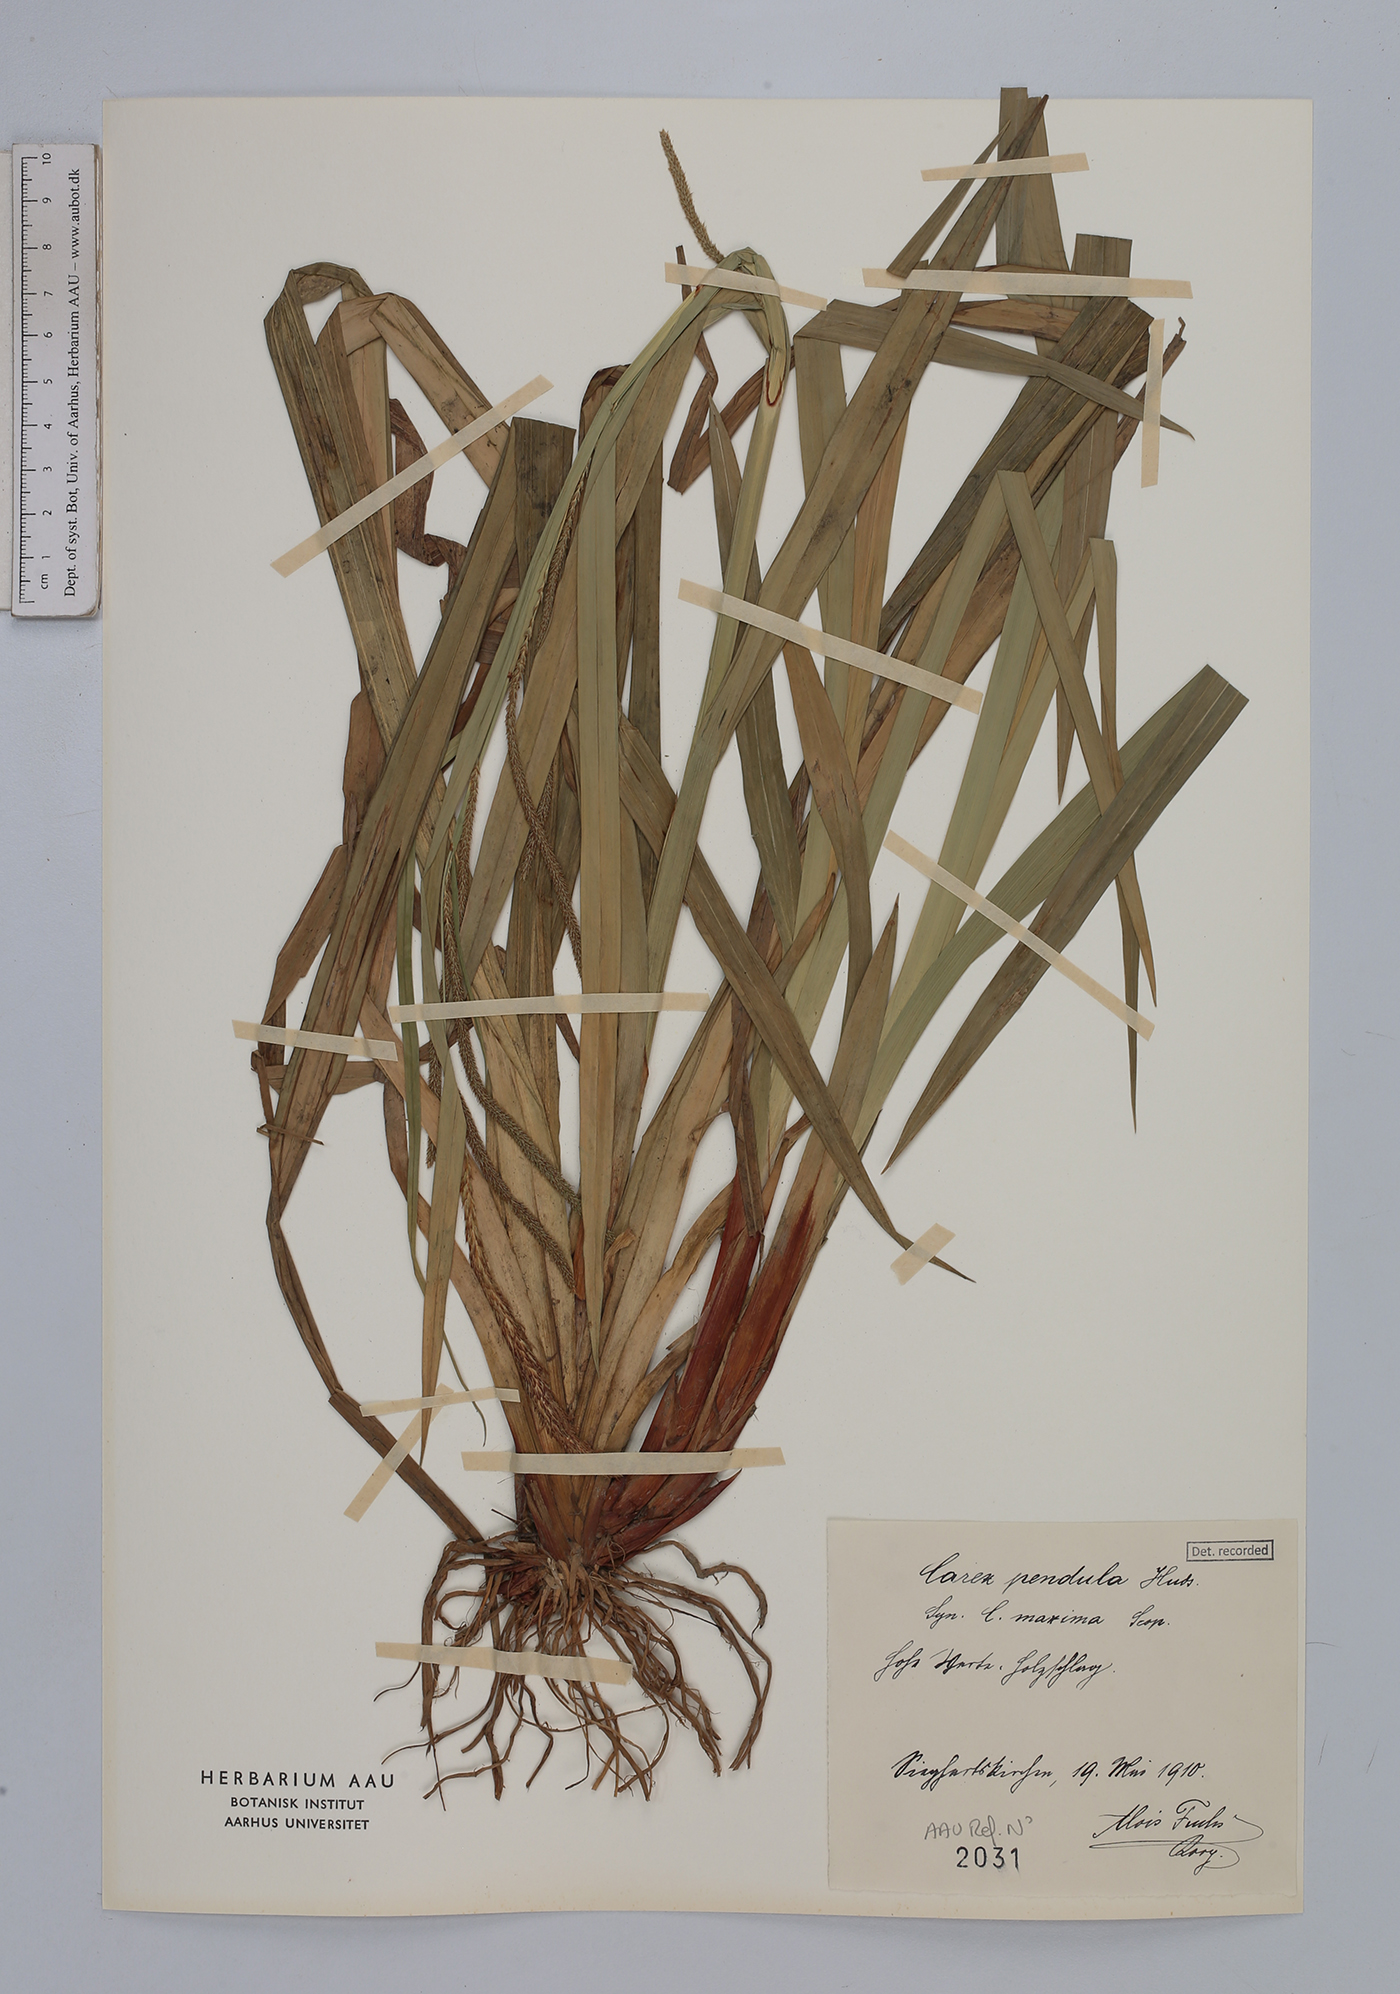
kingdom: Plantae
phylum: Tracheophyta
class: Liliopsida
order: Poales
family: Cyperaceae
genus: Carex
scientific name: Carex pendula
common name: Pendulous sedge
